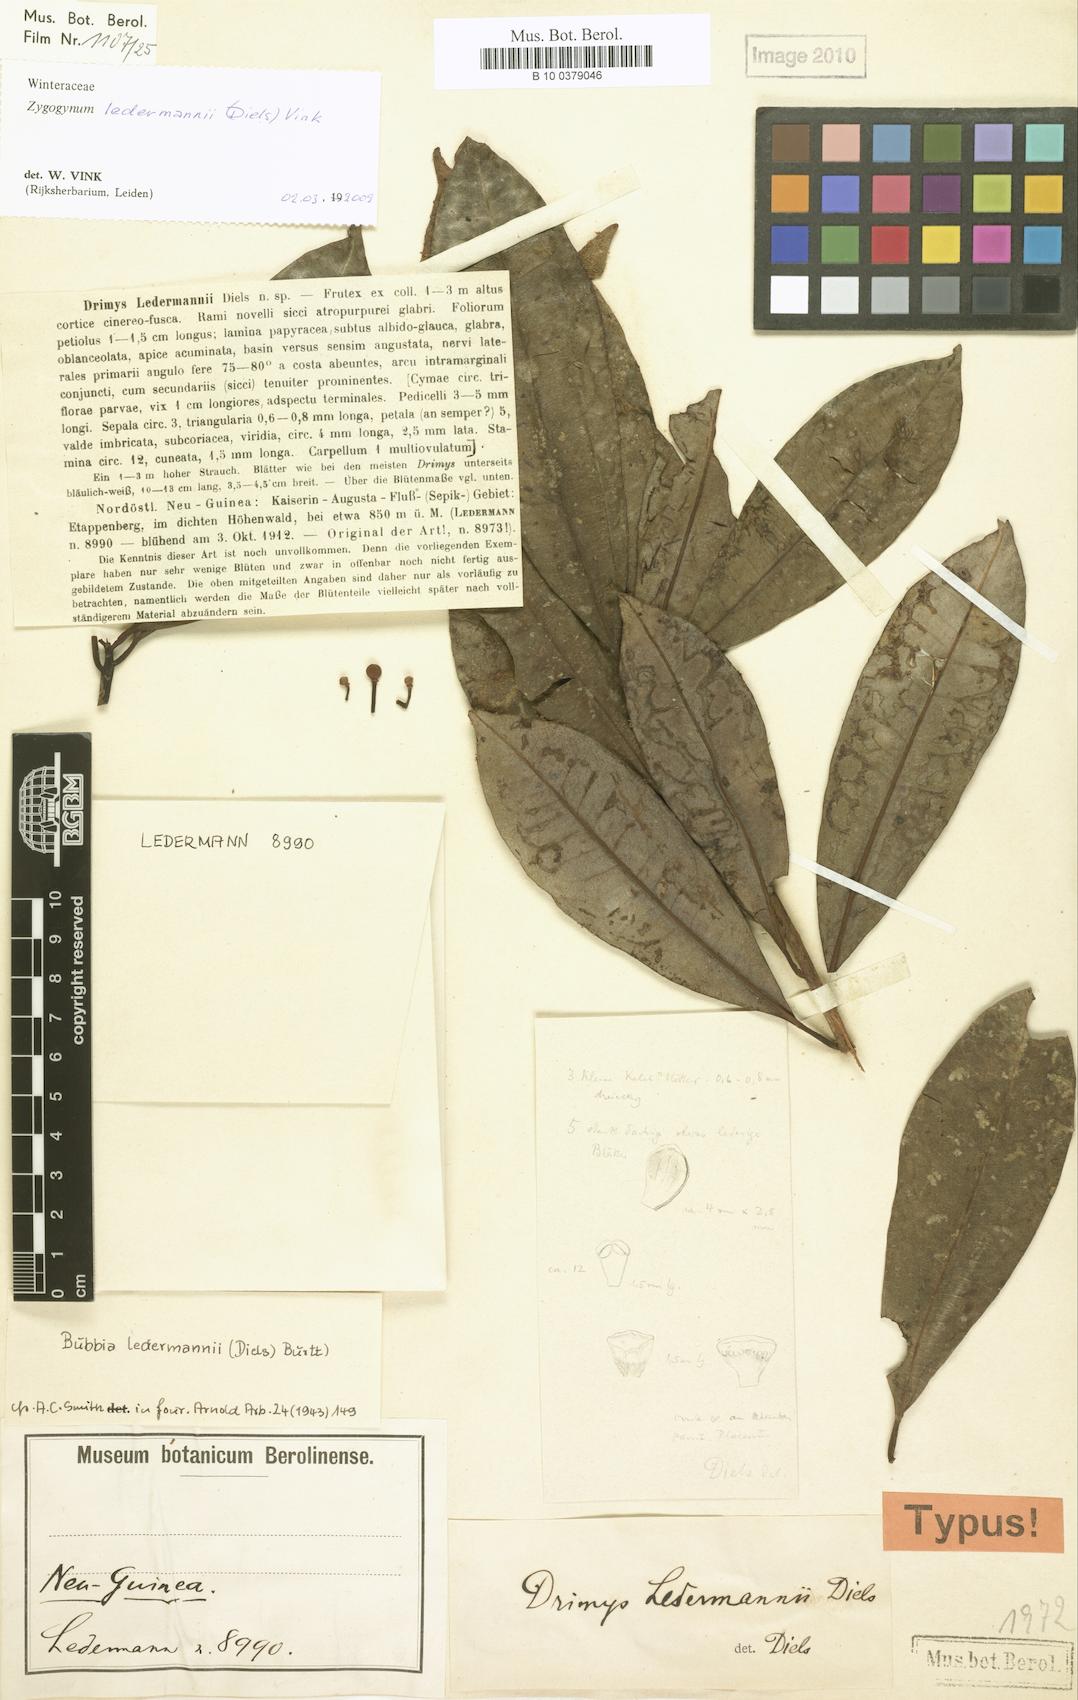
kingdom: Plantae
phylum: Tracheophyta
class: Magnoliopsida
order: Canellales
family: Winteraceae
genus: Zygogynum
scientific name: Zygogynum ledermannii
